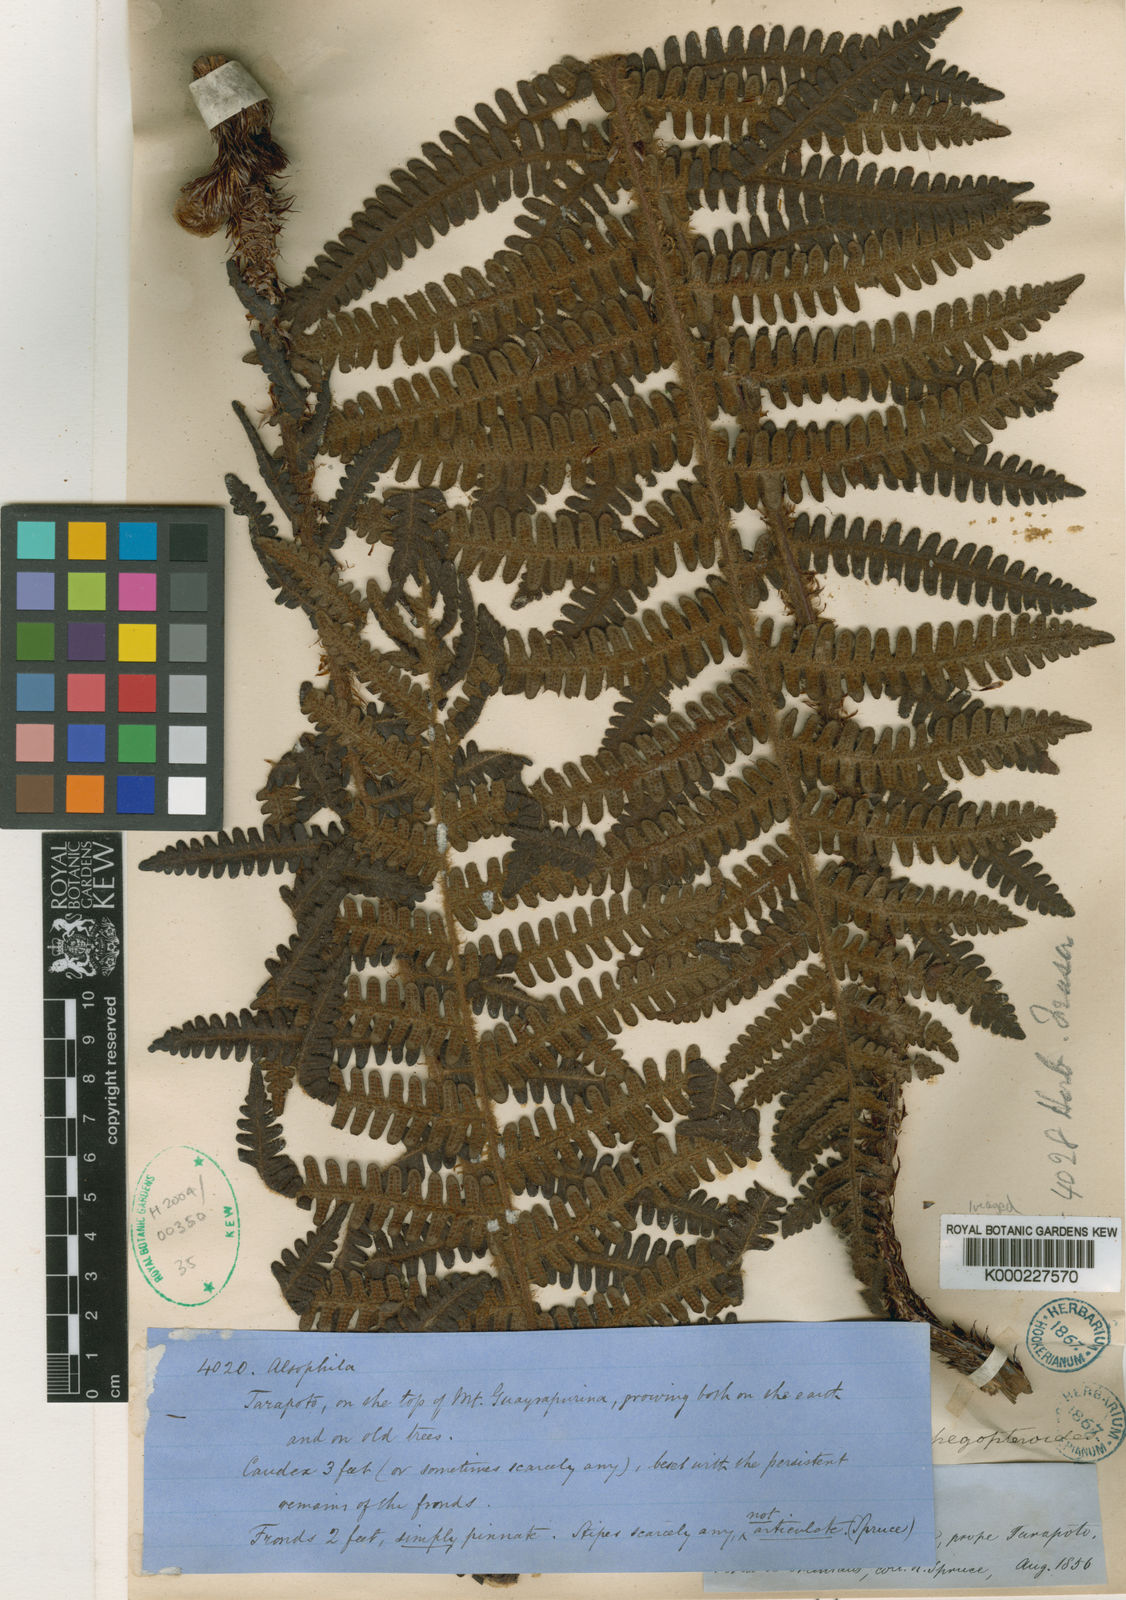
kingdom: Plantae
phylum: Tracheophyta
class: Polypodiopsida
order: Cyatheales
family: Cyatheaceae
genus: Cyathea
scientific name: Cyathea phegopteroides
